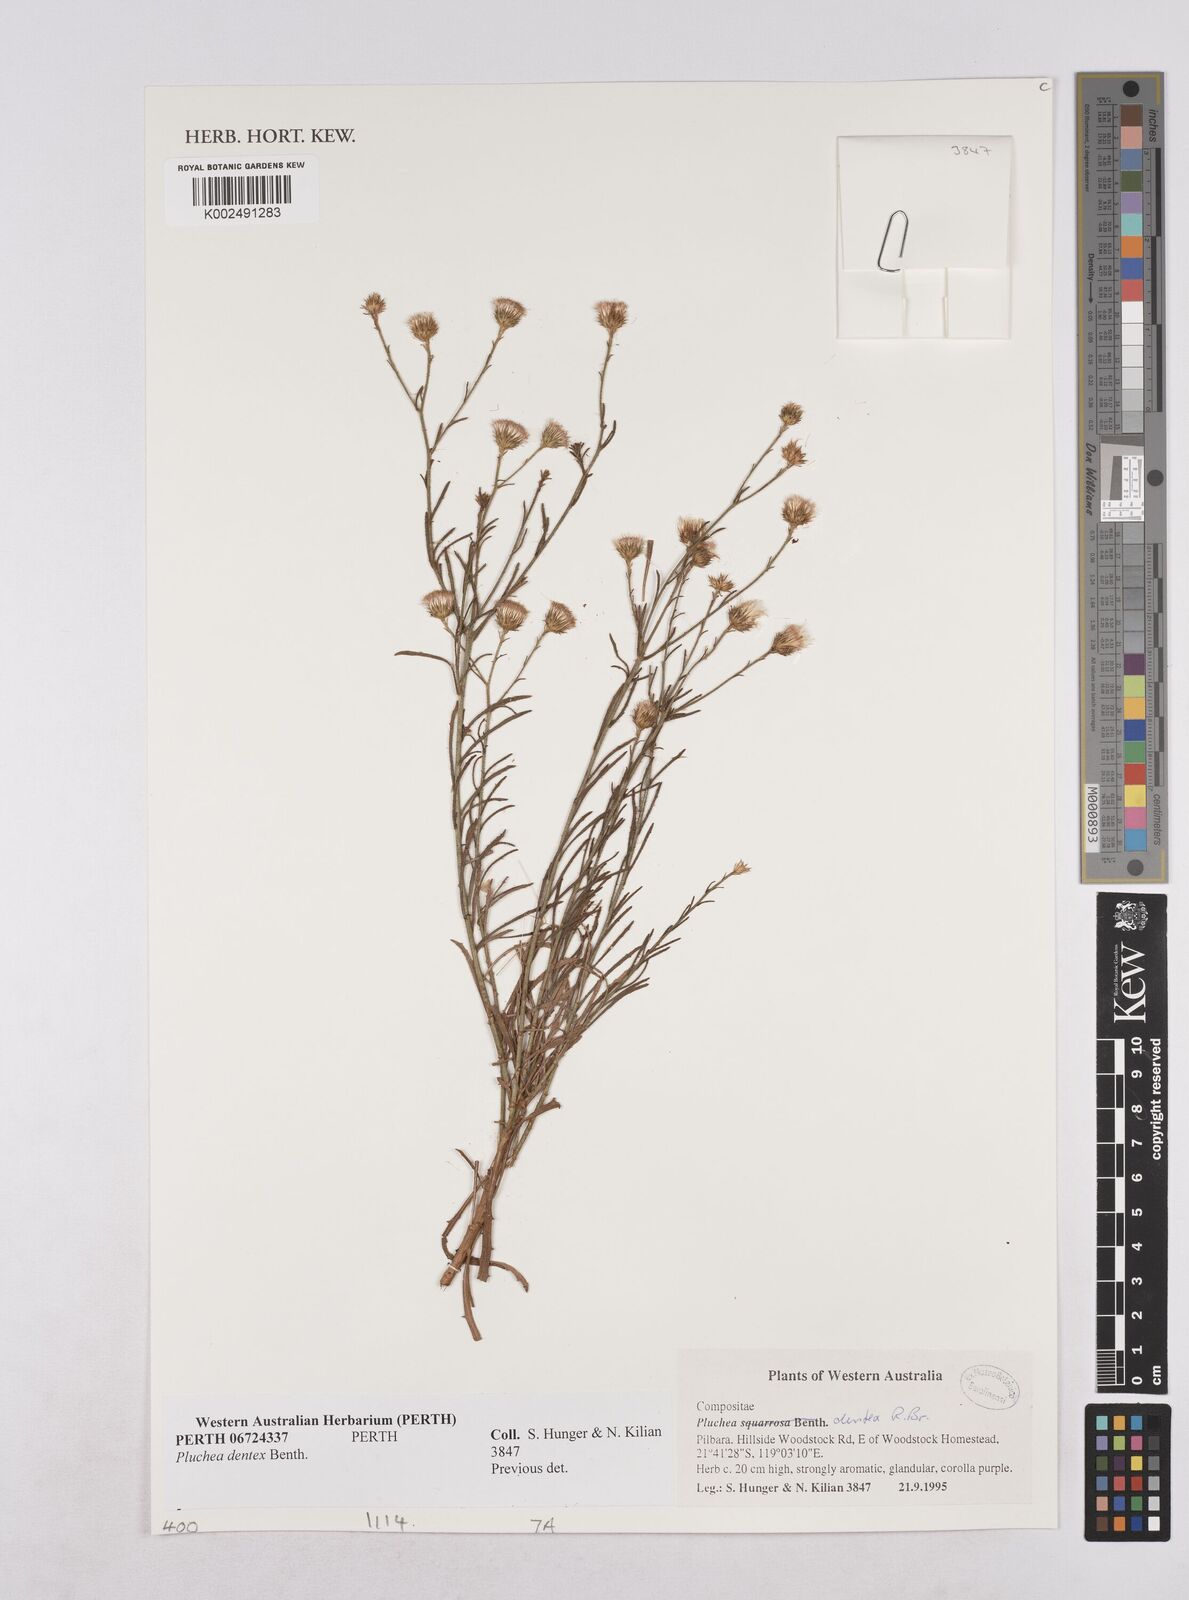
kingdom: Plantae
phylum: Tracheophyta
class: Magnoliopsida
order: Asterales
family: Asteraceae
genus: Pluchea
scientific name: Pluchea dentex
